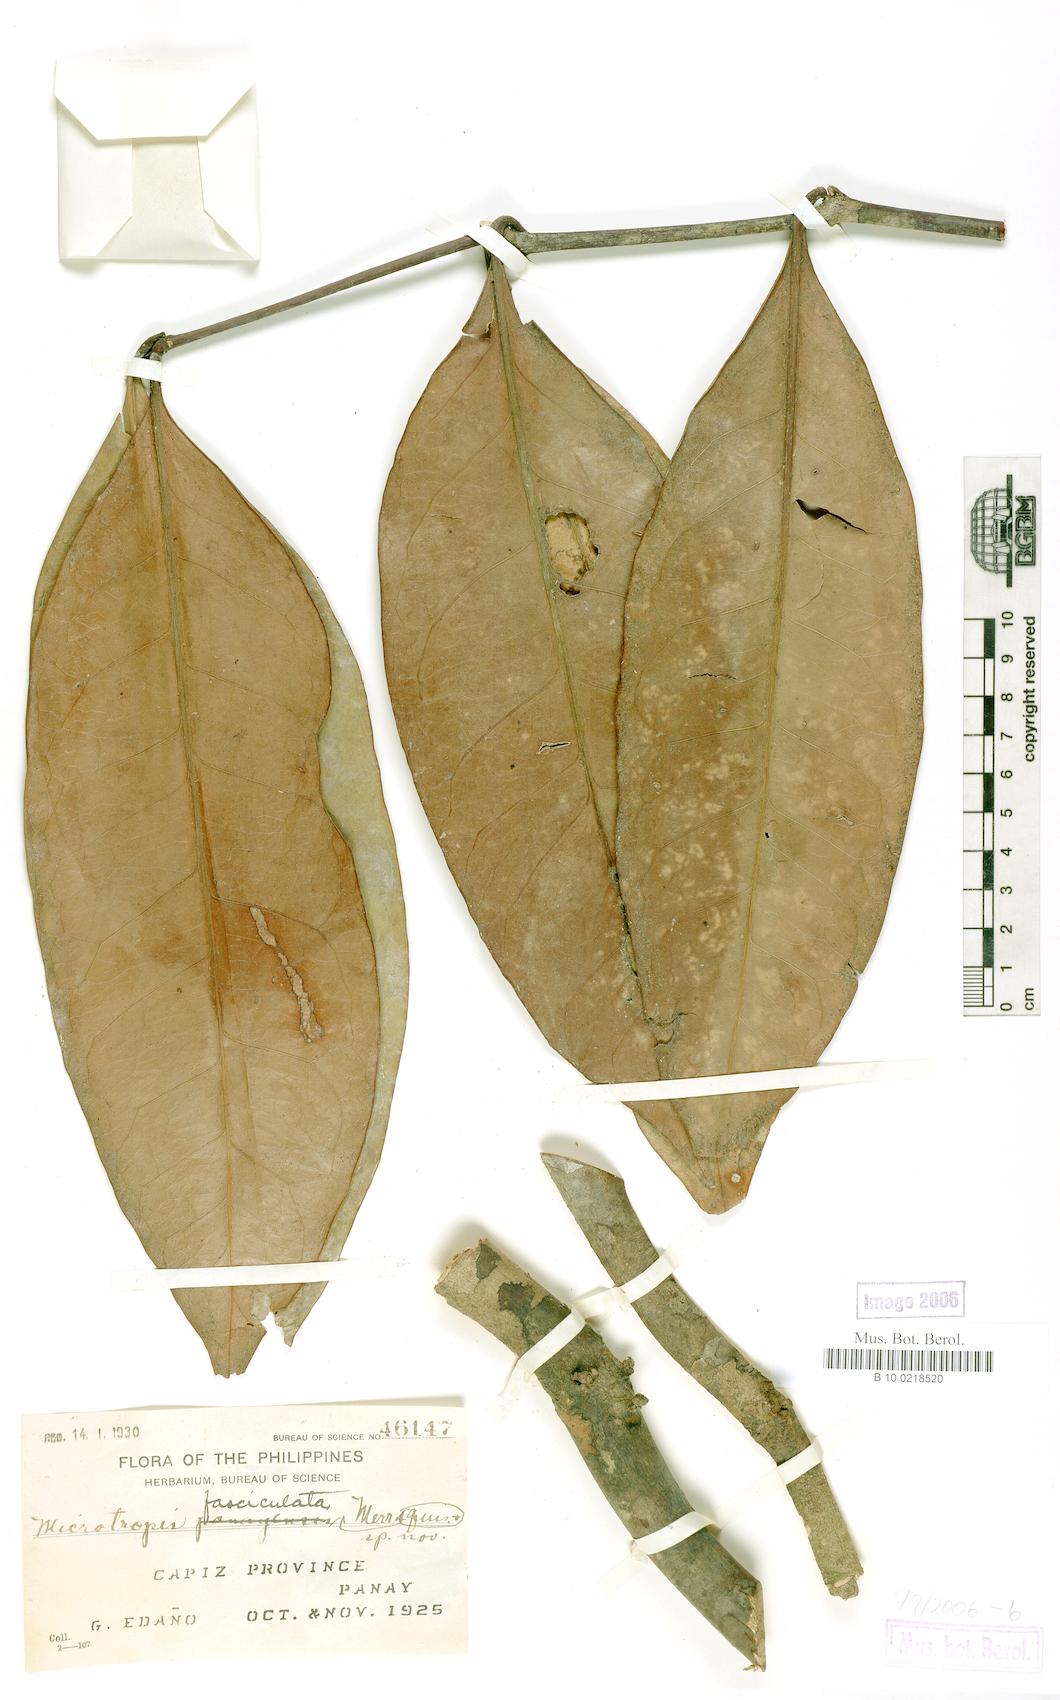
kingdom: Plantae
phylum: Tracheophyta
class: Magnoliopsida
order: Celastrales
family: Celastraceae
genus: Microtropis
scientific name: Microtropis platyphylla
